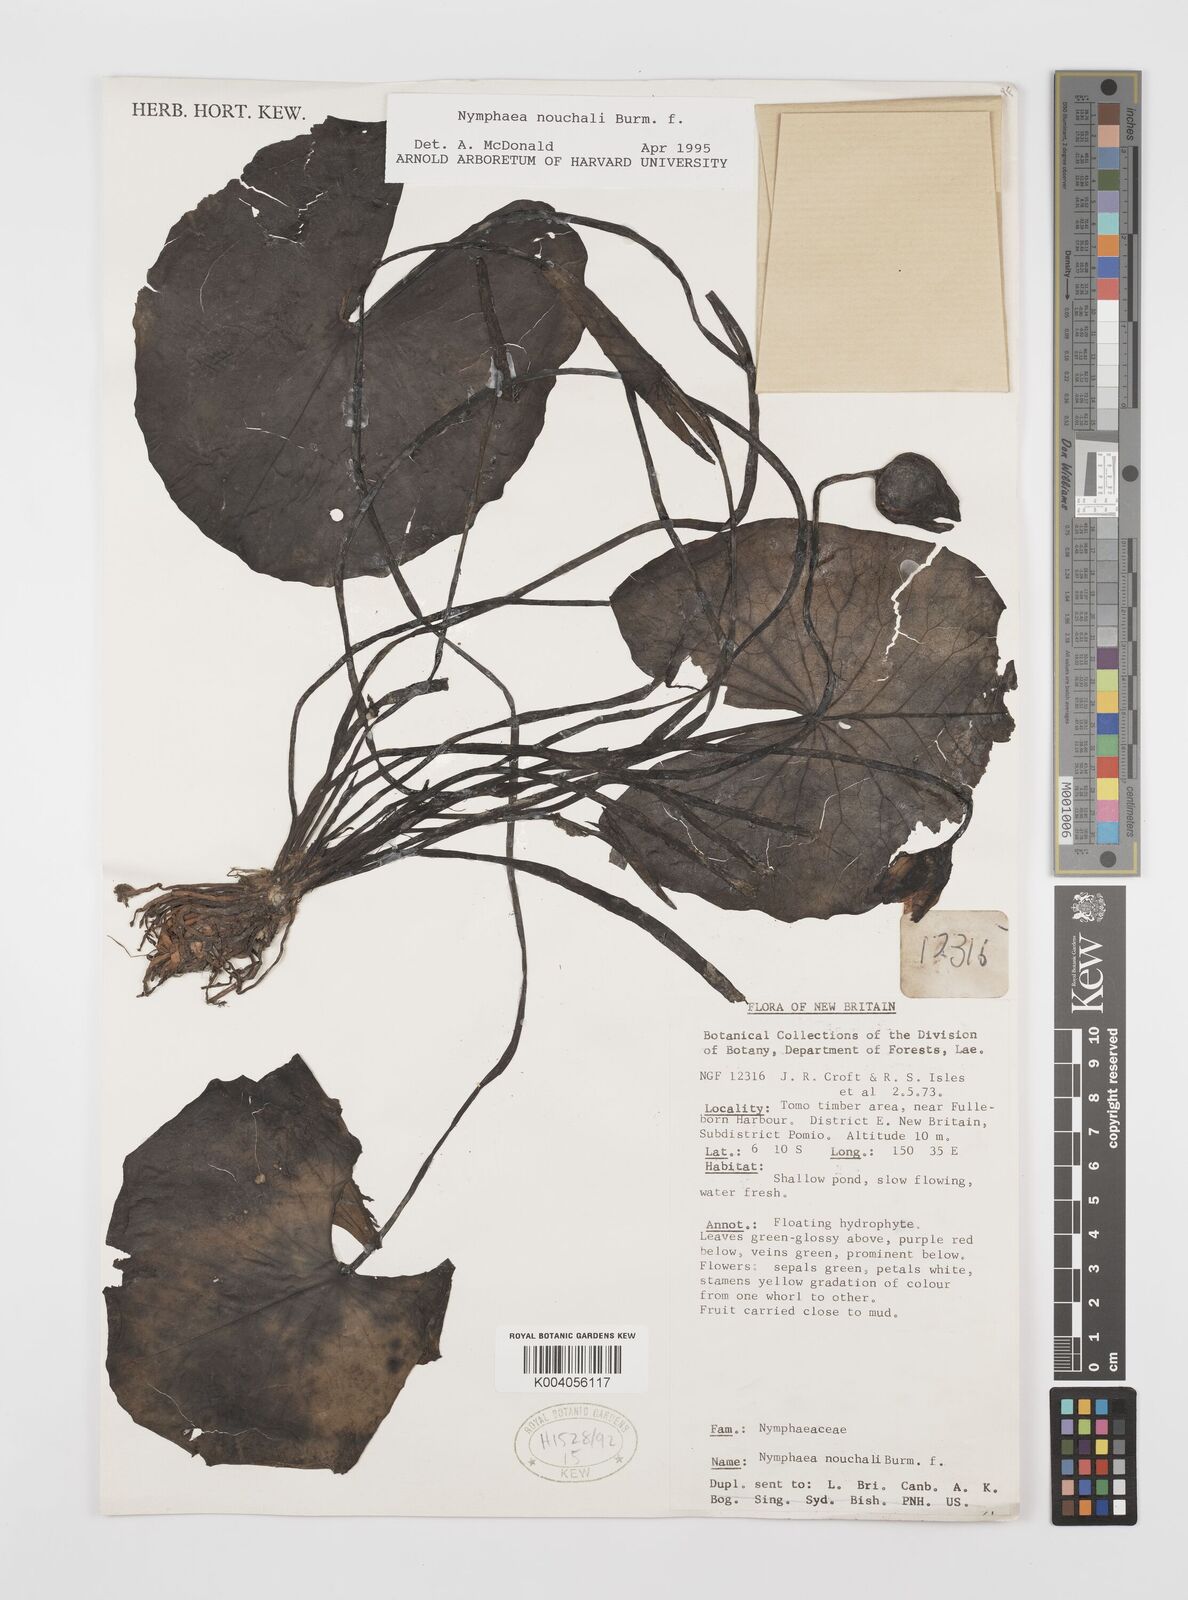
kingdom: Plantae
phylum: Tracheophyta
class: Magnoliopsida
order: Nymphaeales
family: Nymphaeaceae
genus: Nymphaea
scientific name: Nymphaea nouchali
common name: Blue lotus
